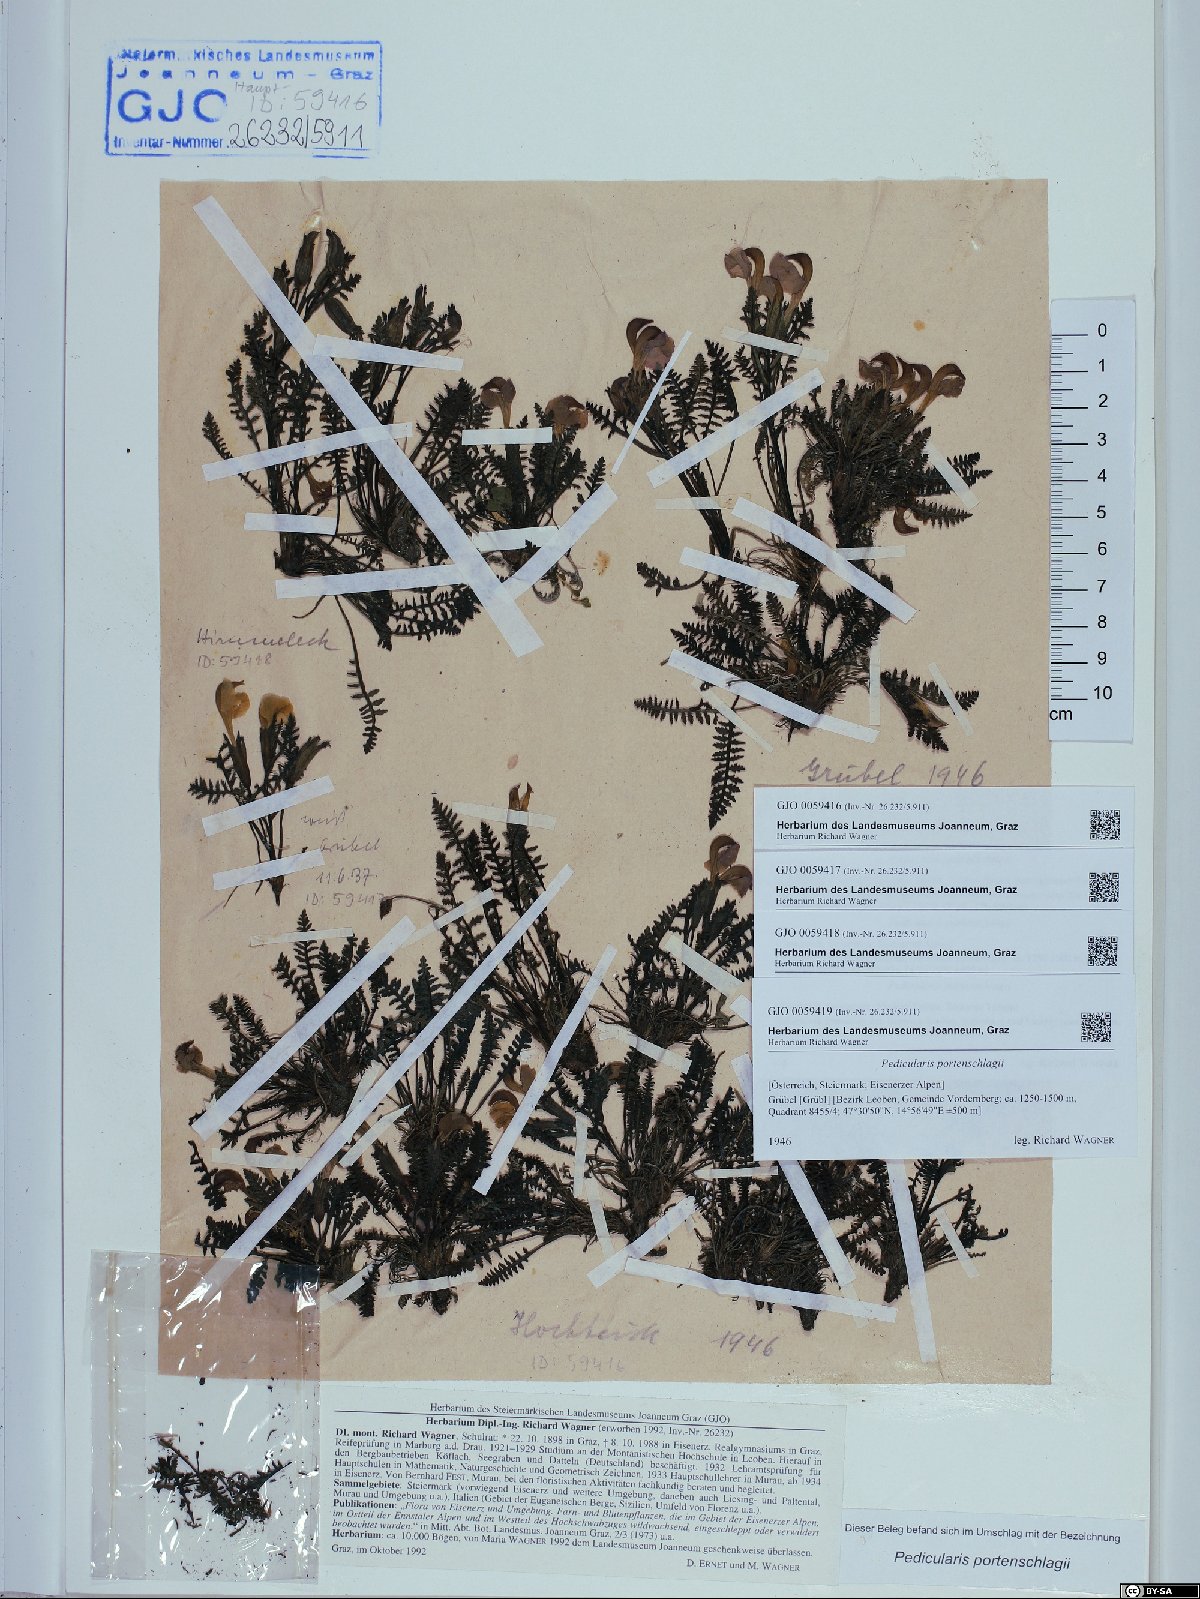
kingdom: Plantae
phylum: Tracheophyta
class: Magnoliopsida
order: Lamiales
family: Orobanchaceae
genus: Pedicularis
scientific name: Pedicularis portenschlagii
